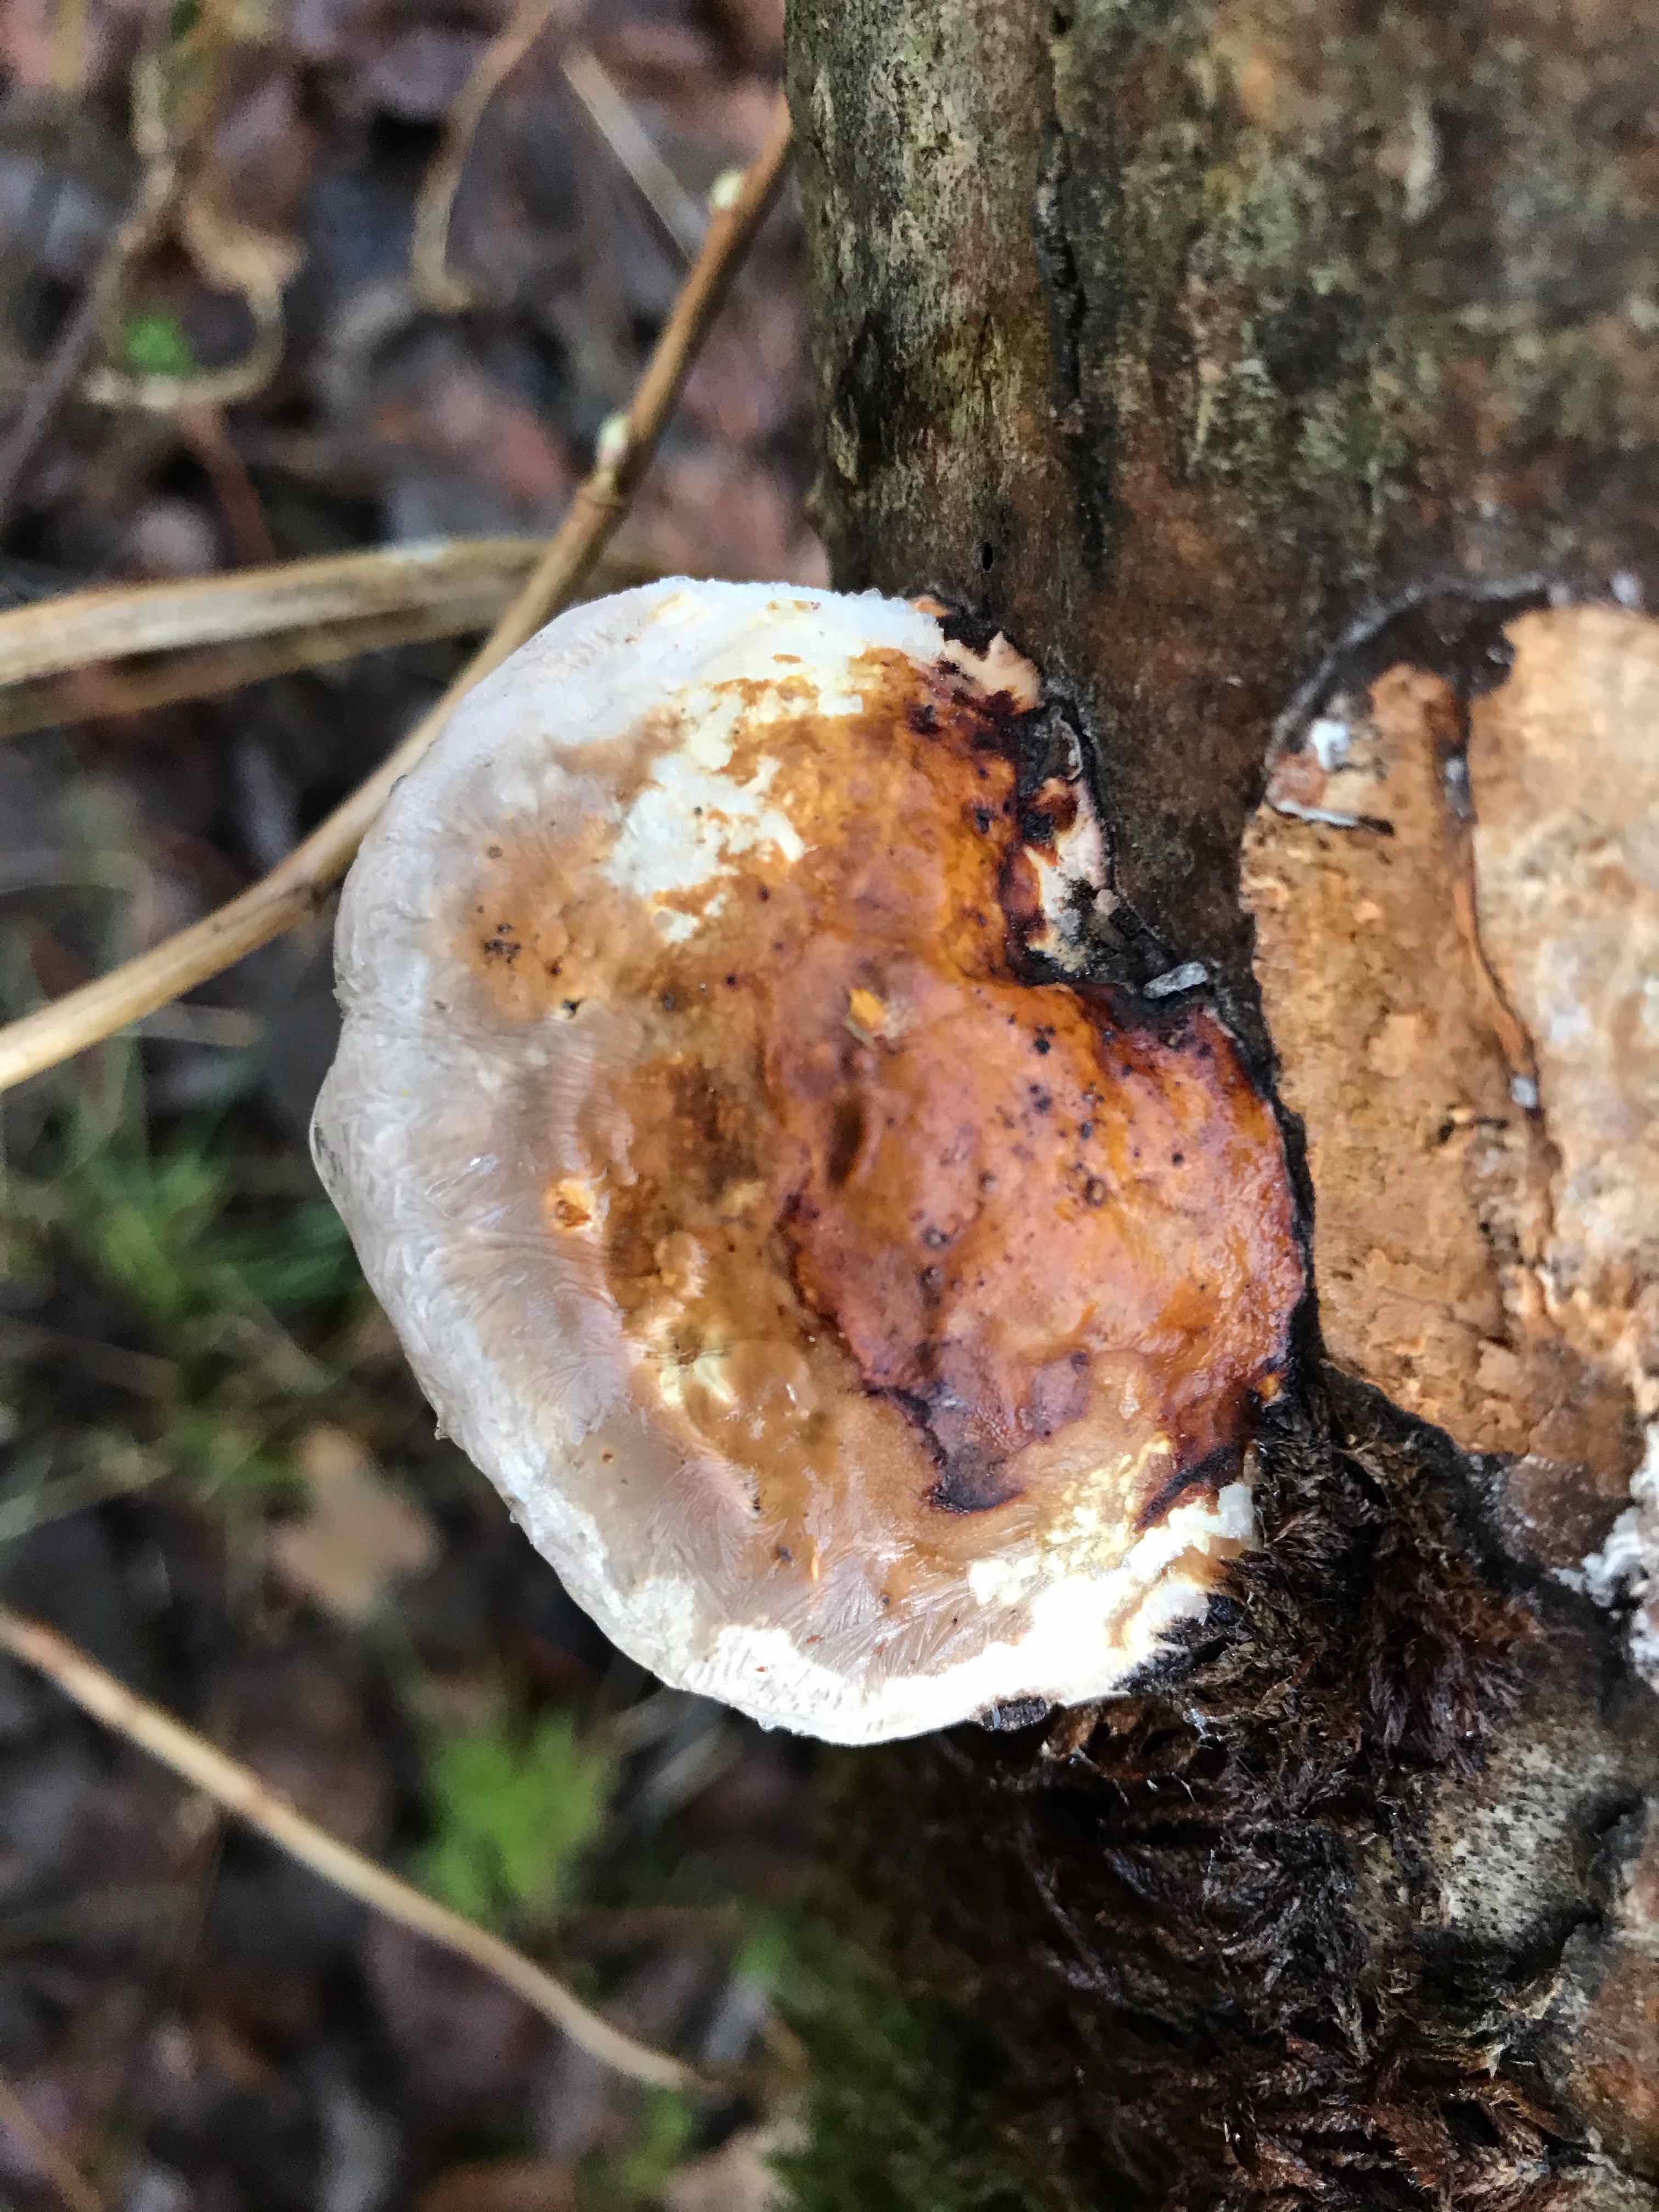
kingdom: Fungi
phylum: Basidiomycota
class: Agaricomycetes
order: Polyporales
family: Fomitopsidaceae
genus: Fomitopsis
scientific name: Fomitopsis pinicola
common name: randbæltet hovporesvamp
